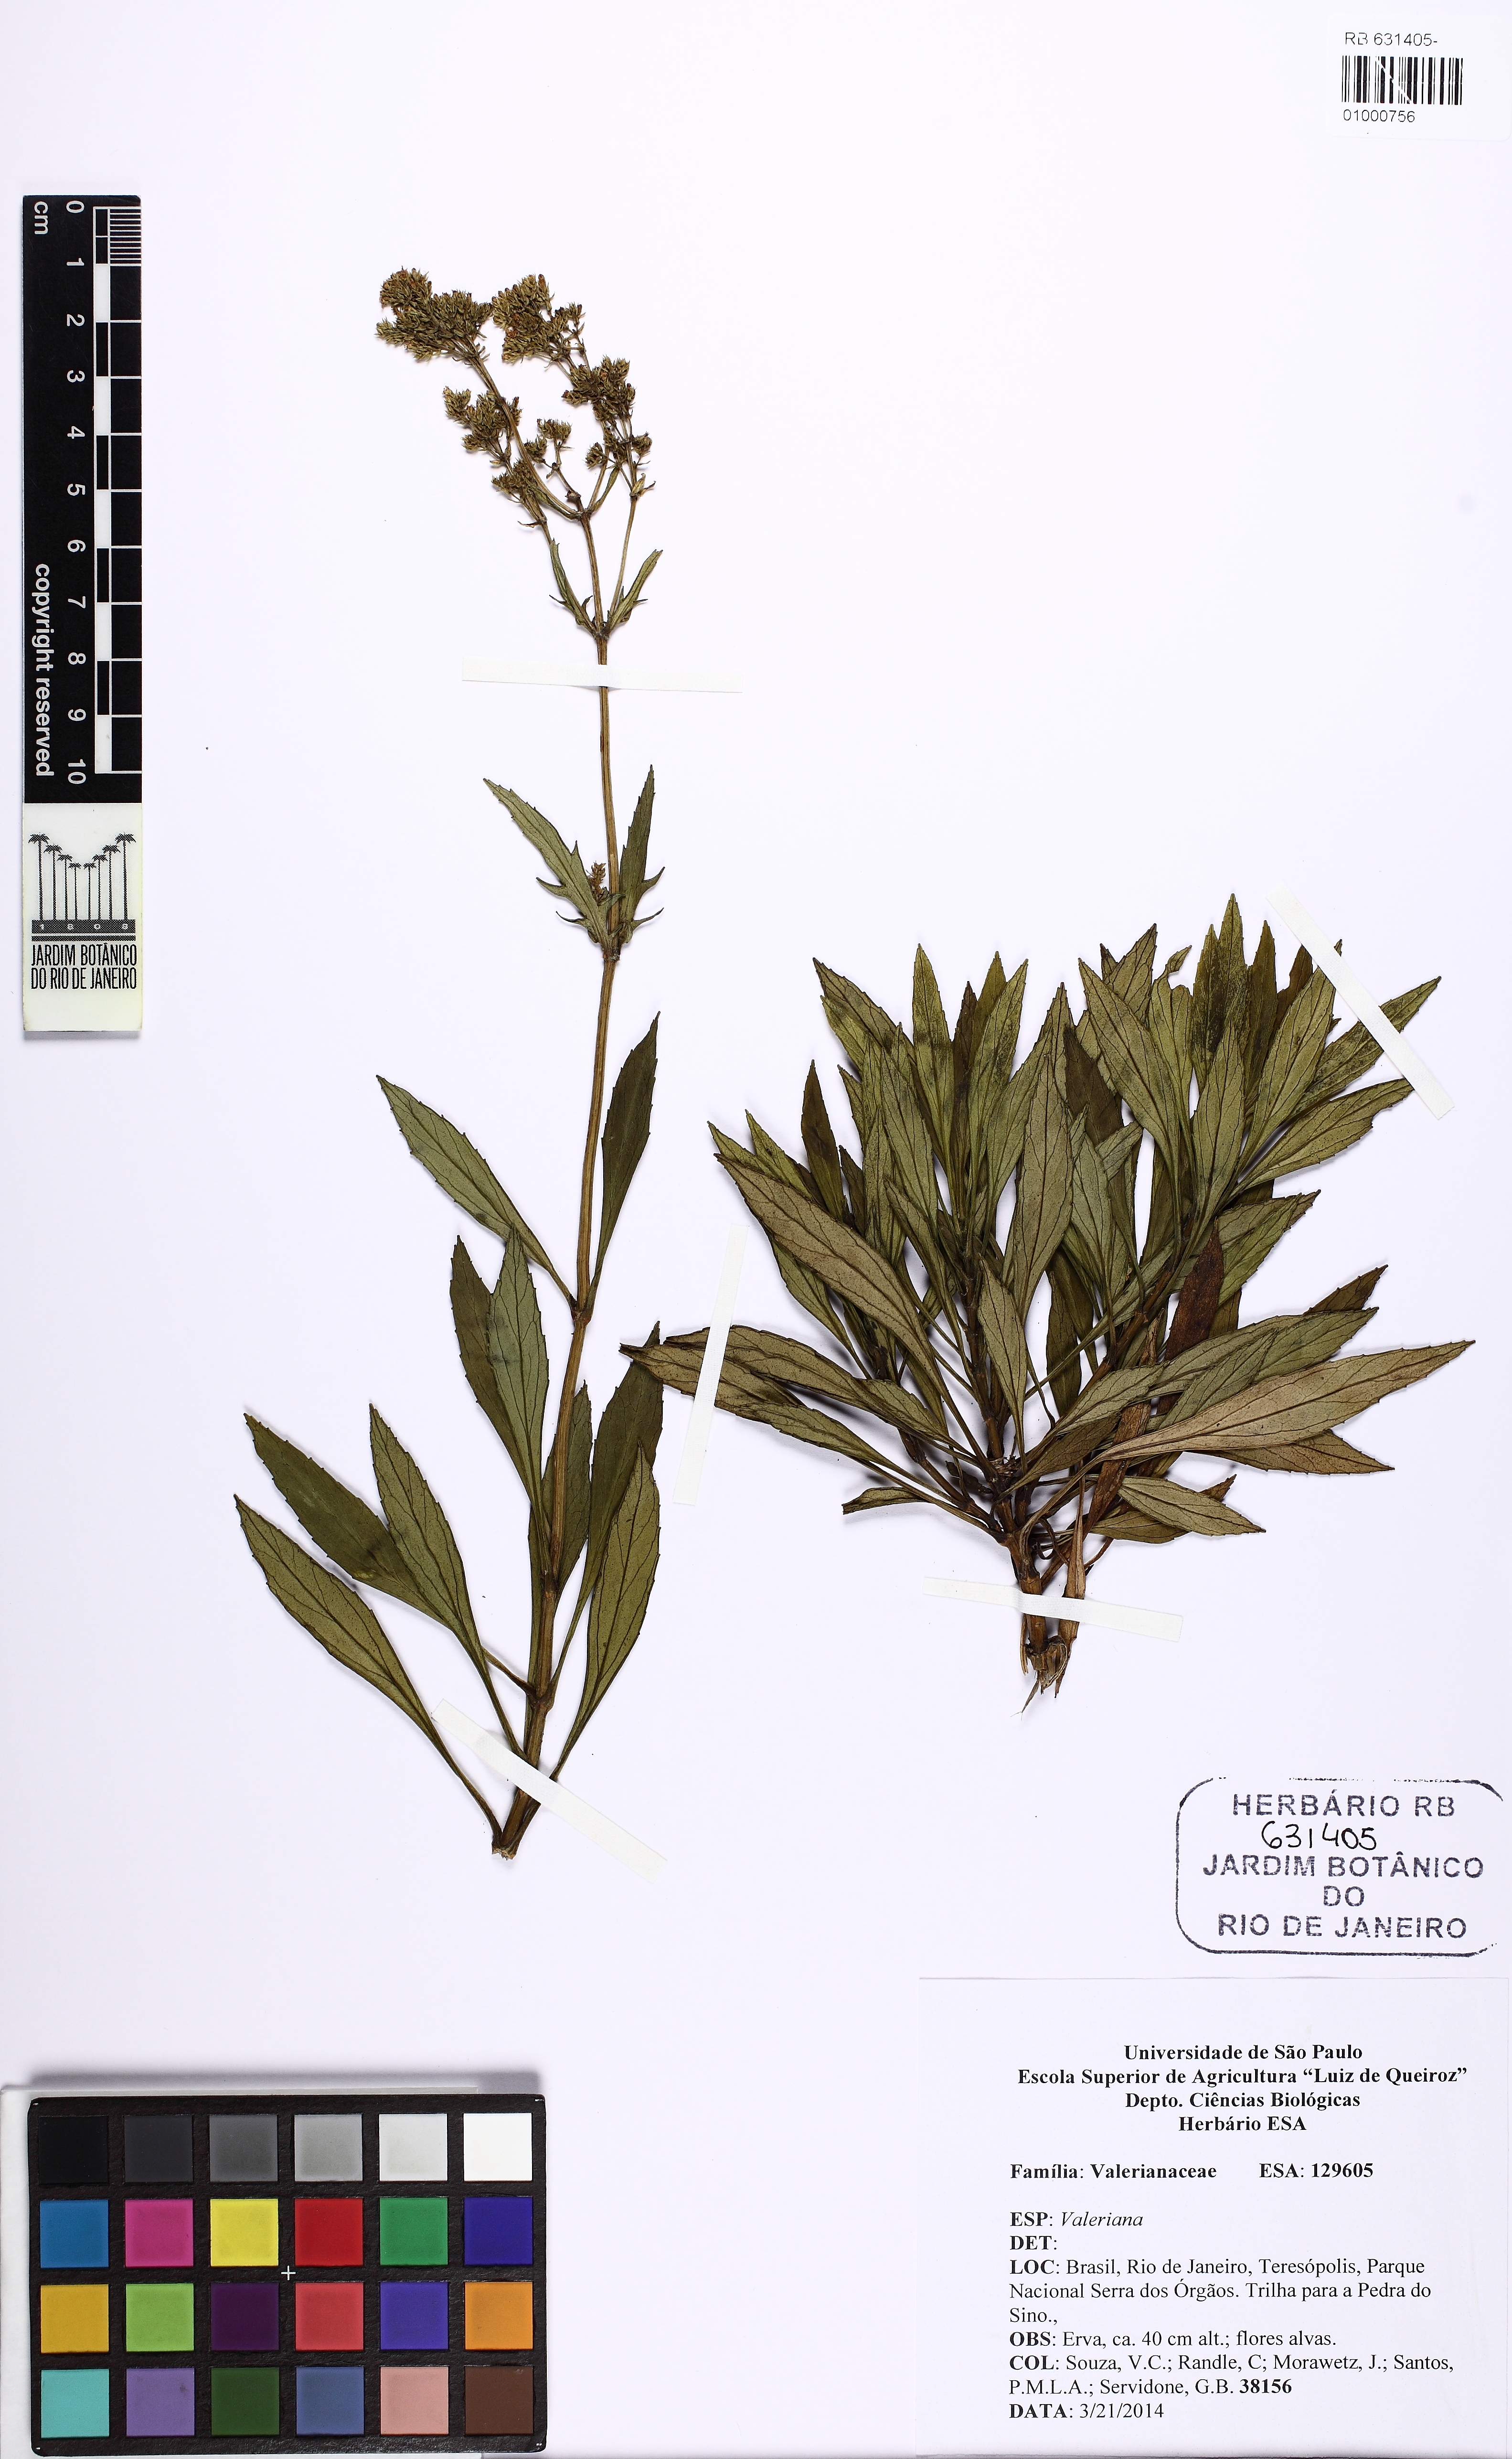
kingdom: Plantae
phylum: Tracheophyta
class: Magnoliopsida
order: Dipsacales
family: Caprifoliaceae
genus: Valeriana
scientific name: Valeriana organensis
